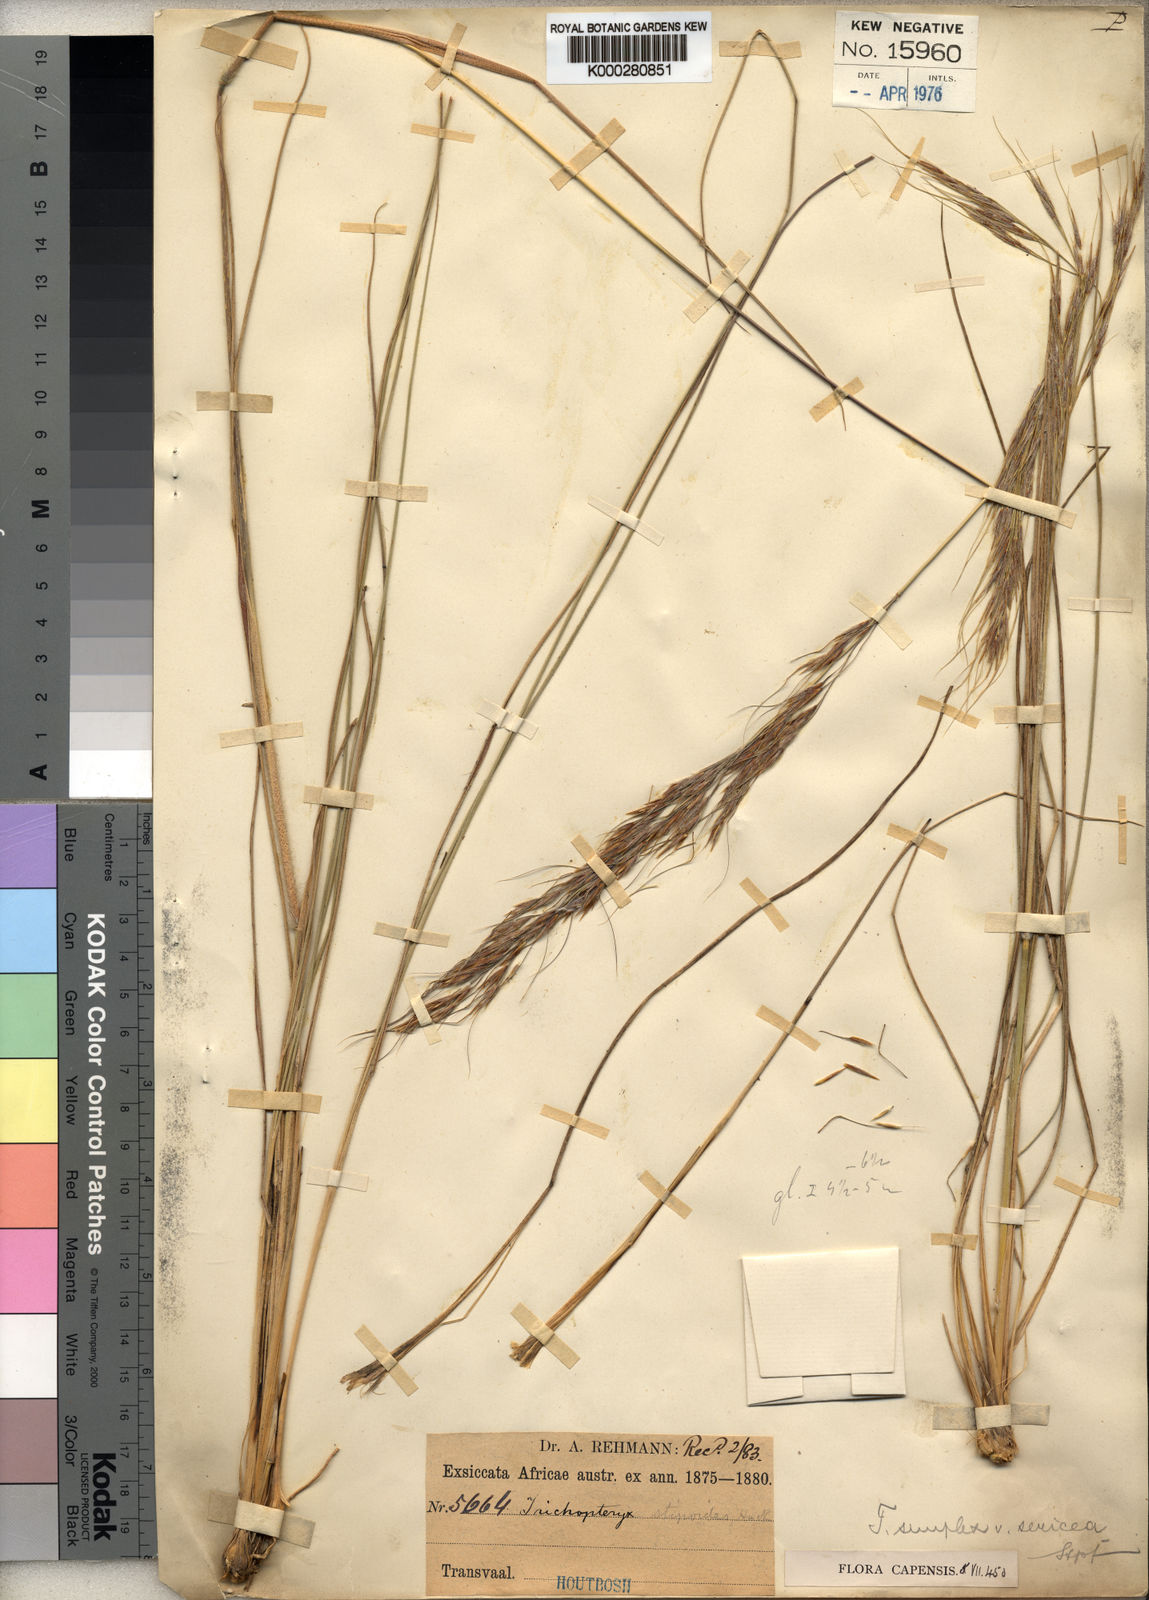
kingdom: Plantae
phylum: Tracheophyta
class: Liliopsida
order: Poales
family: Poaceae
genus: Loudetia
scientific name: Loudetia simplex
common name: Common russet grass
